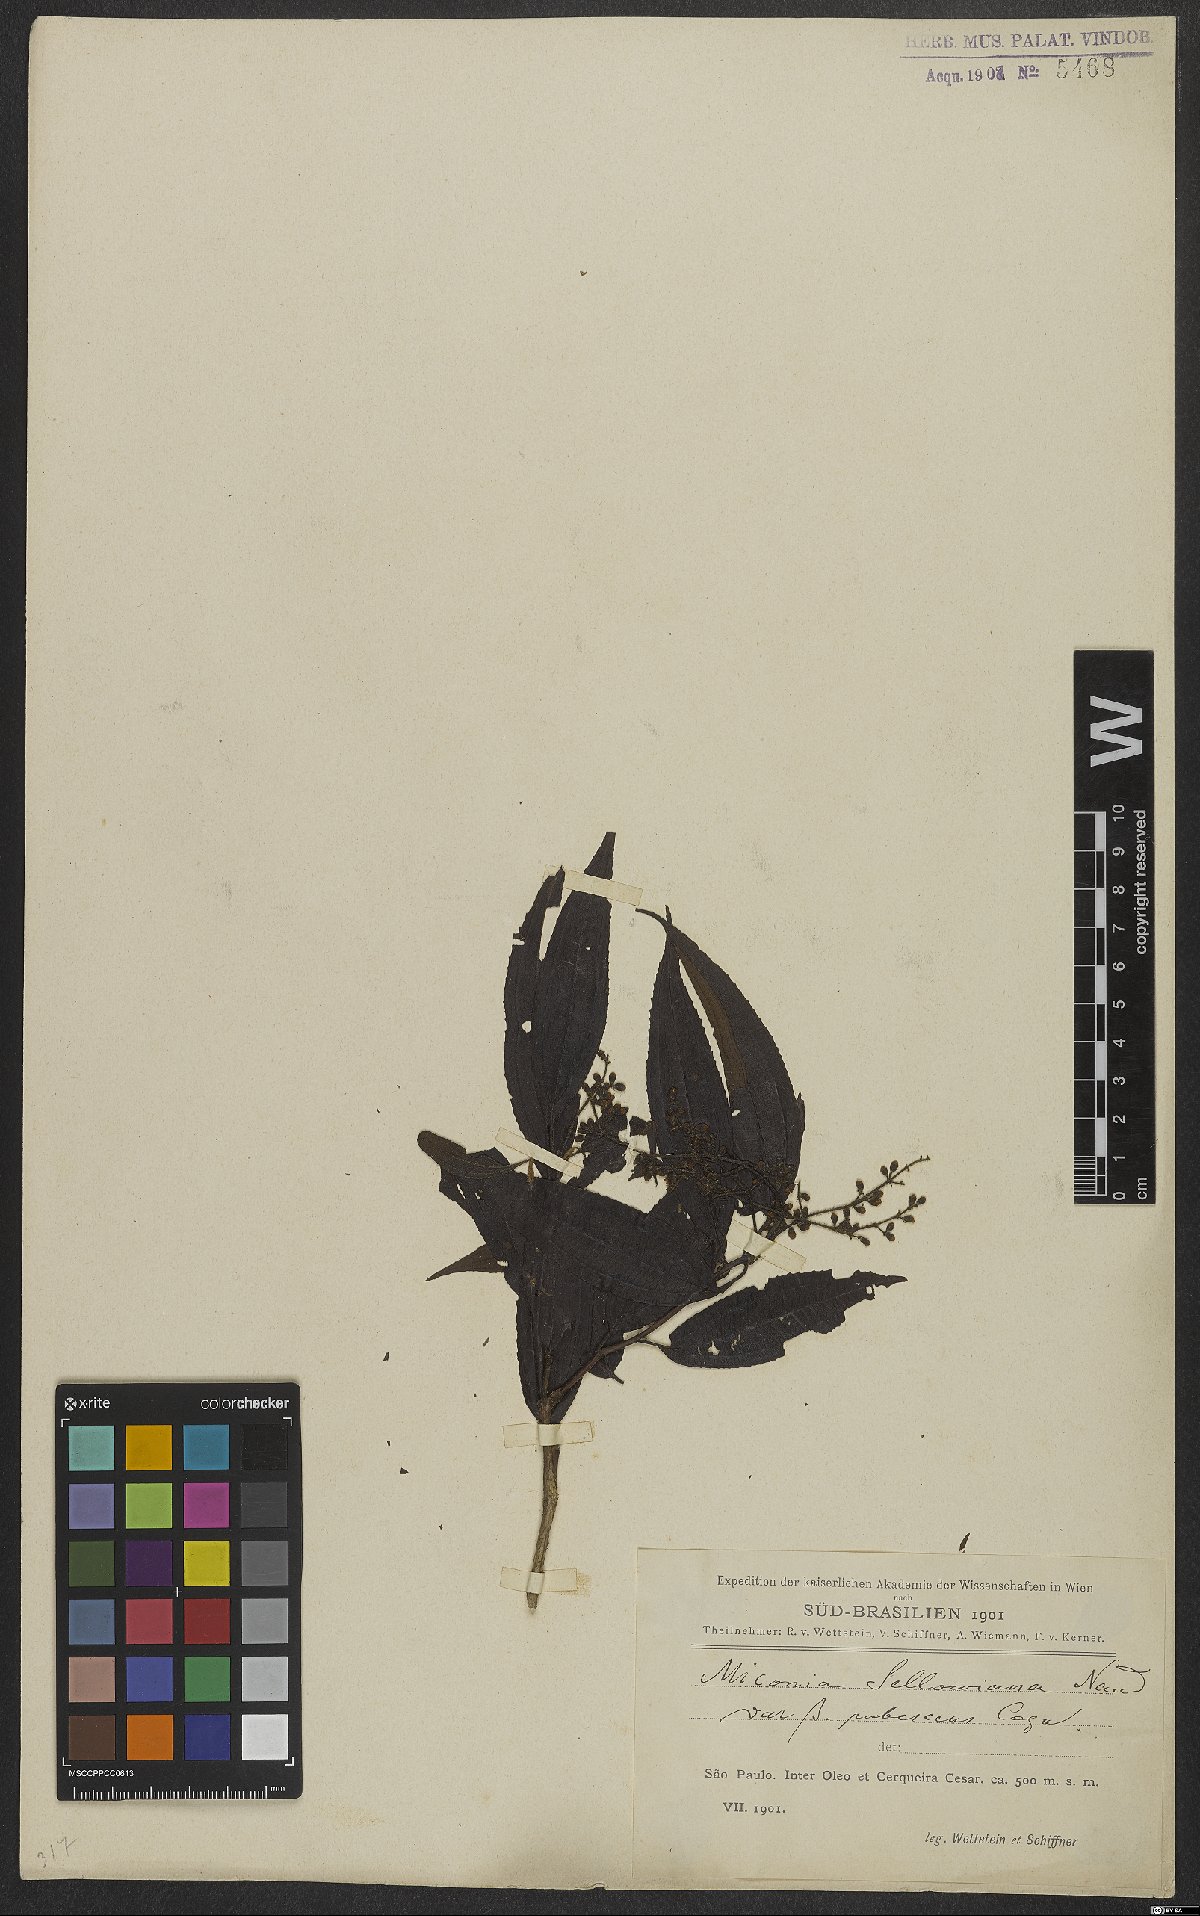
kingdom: Plantae
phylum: Tracheophyta
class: Magnoliopsida
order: Myrtales
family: Melastomataceae
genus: Miconia
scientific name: Miconia sellowiana
